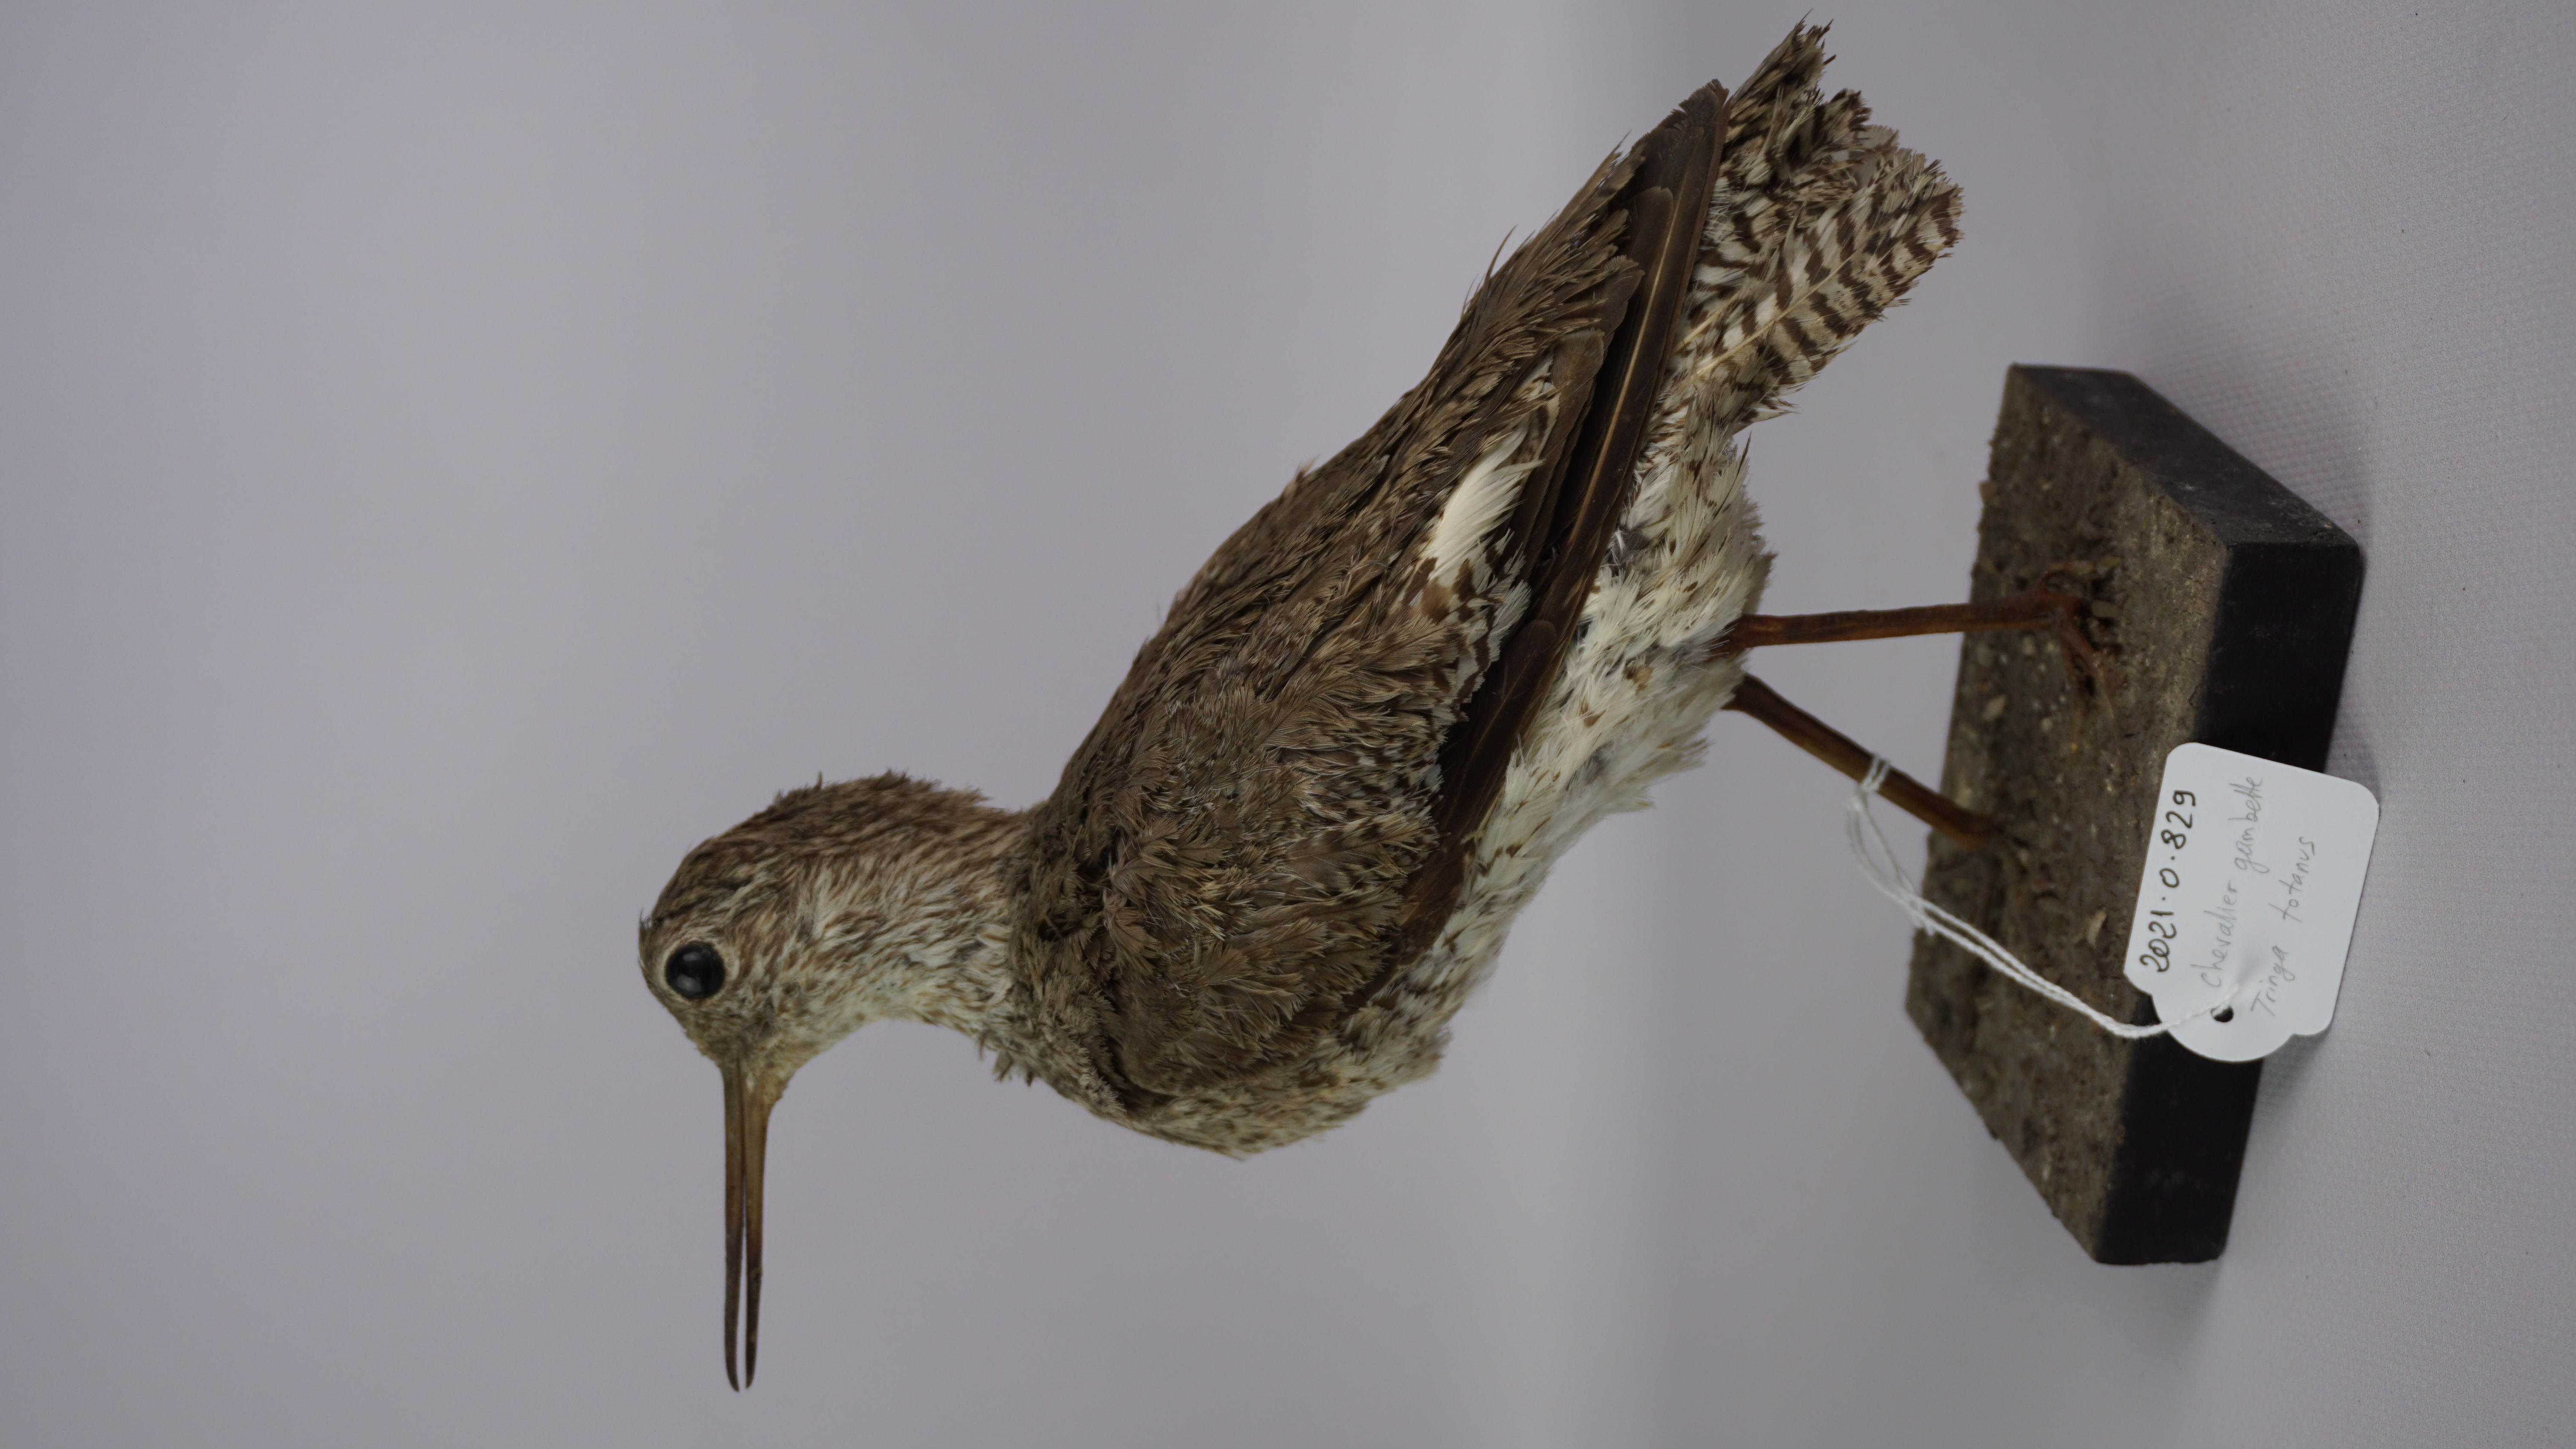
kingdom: Animalia
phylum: Chordata
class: Aves
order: Charadriiformes
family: Scolopacidae
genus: Tringa
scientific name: Tringa totanus
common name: Common redshank
